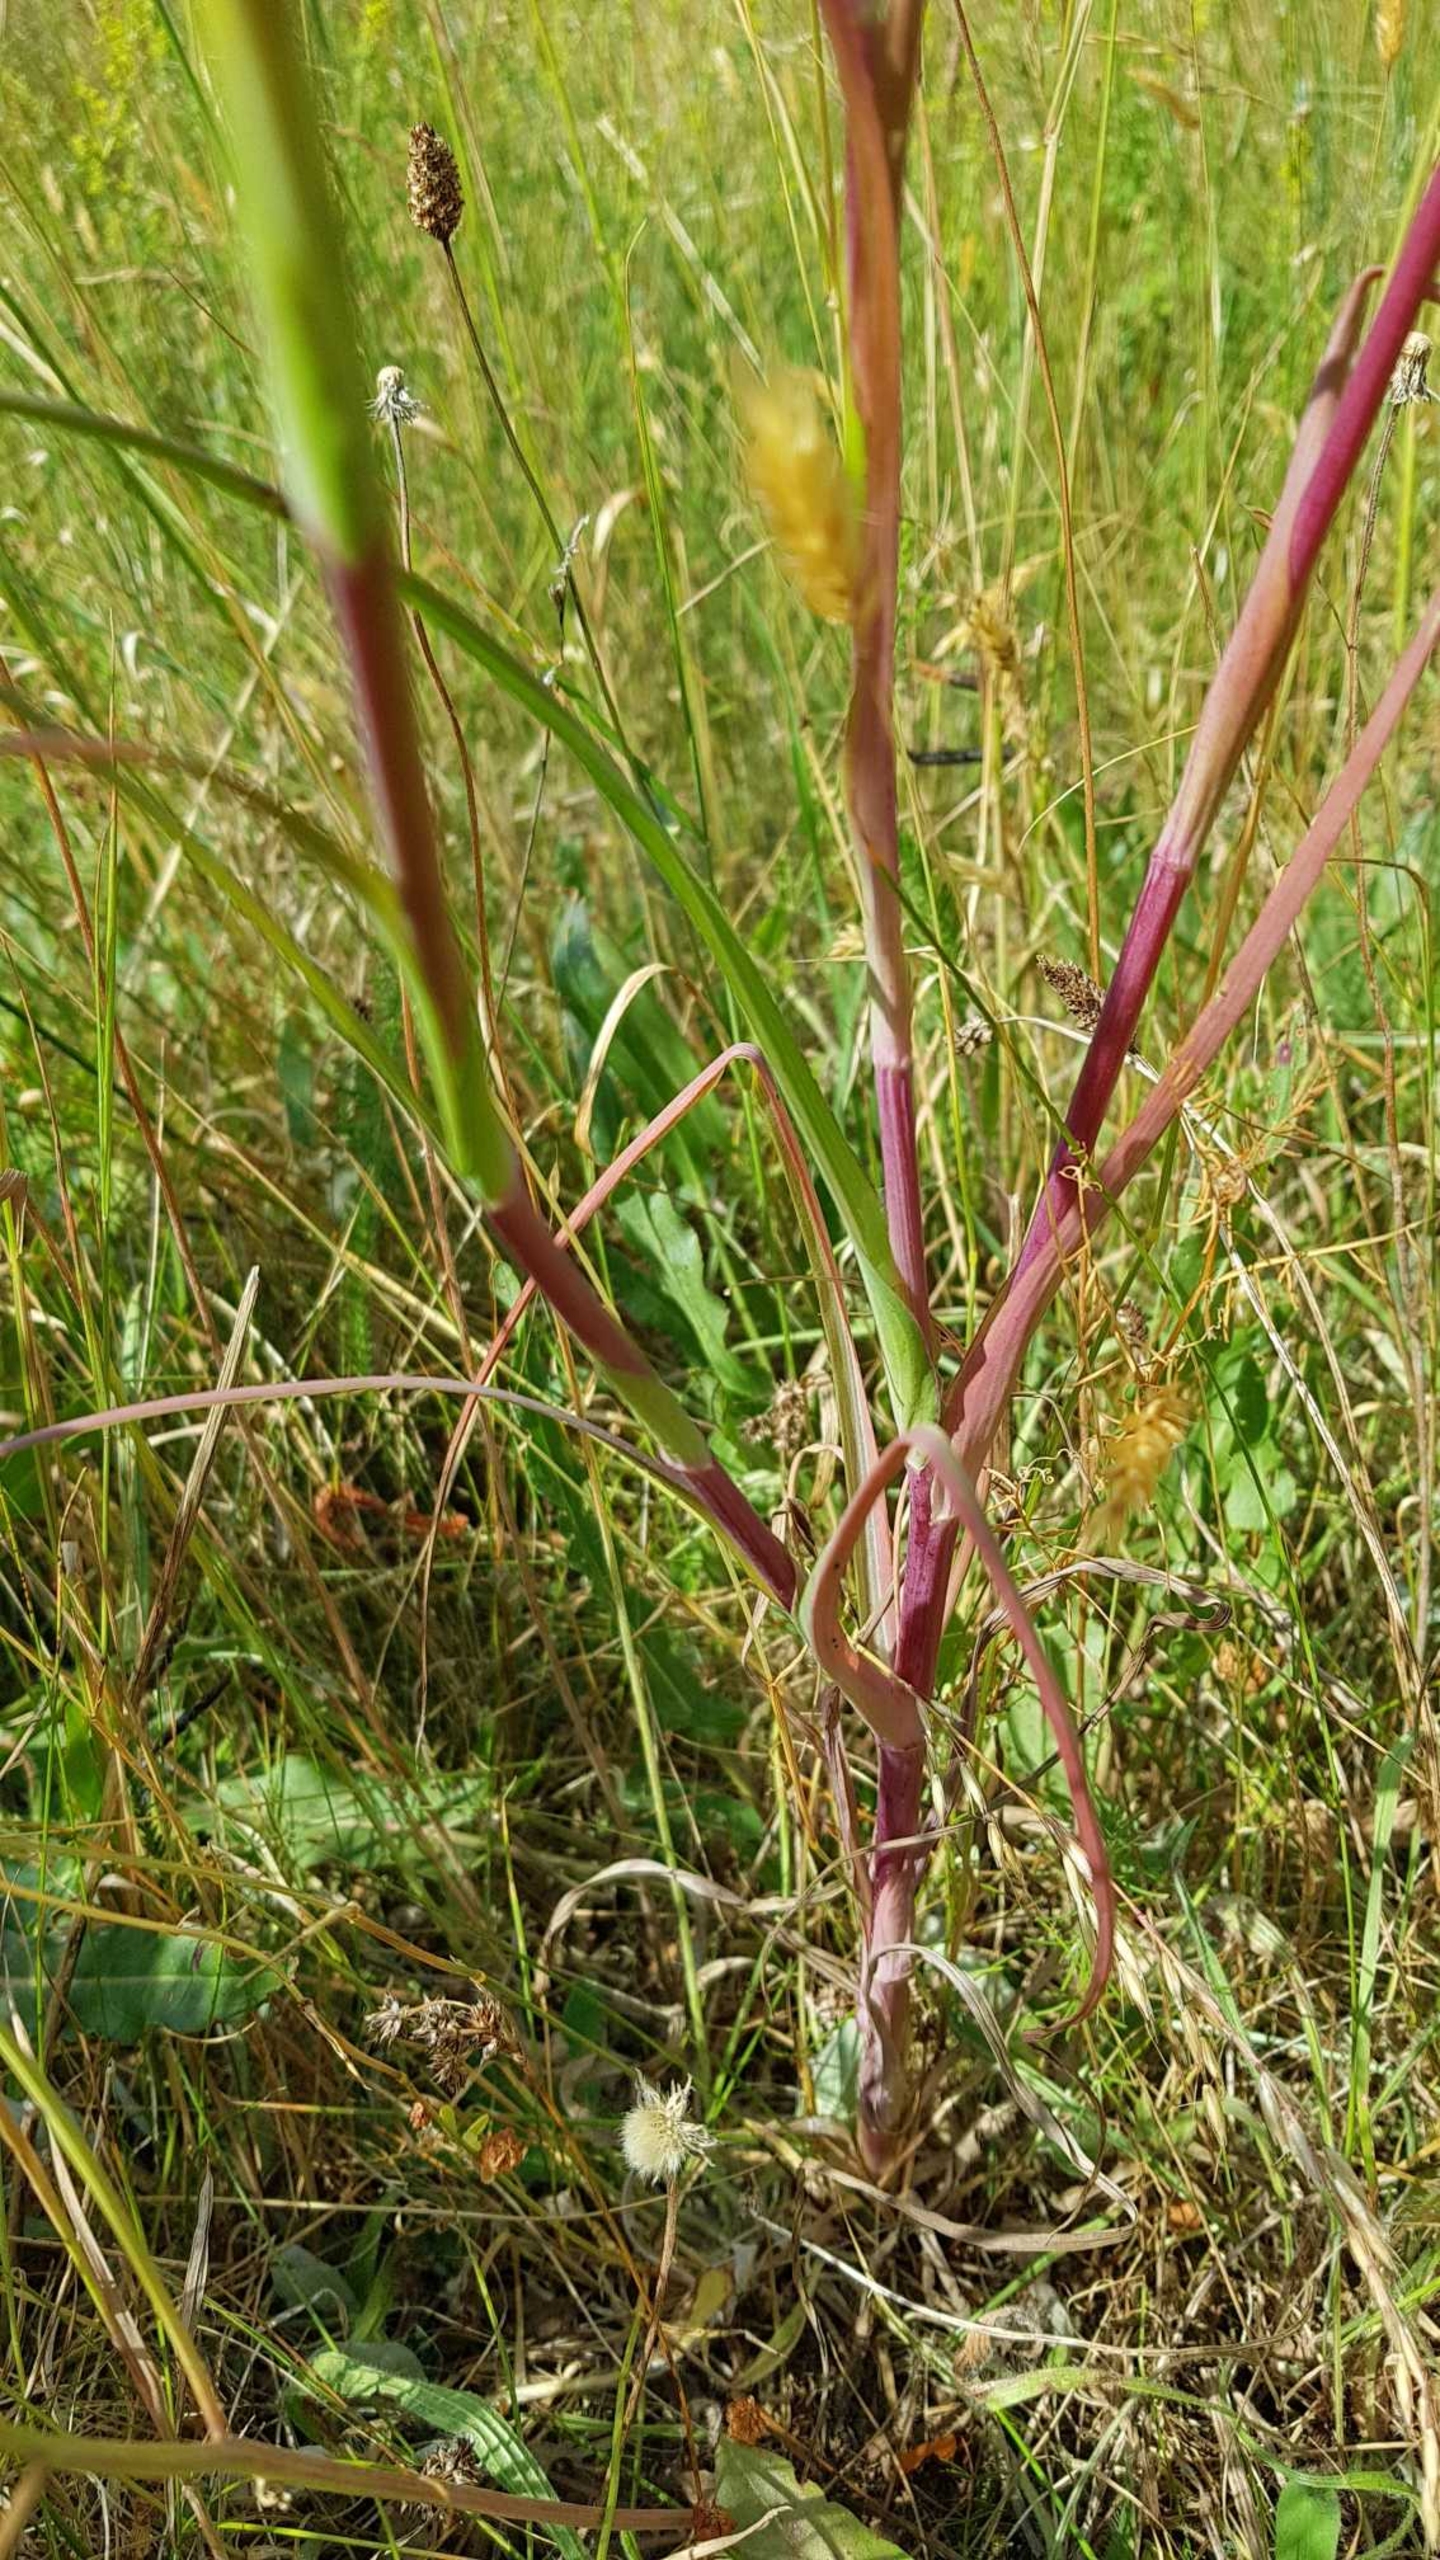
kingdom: Plantae
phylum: Tracheophyta
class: Magnoliopsida
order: Asterales
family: Asteraceae
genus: Tragopogon
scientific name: Tragopogon pratensis
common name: Gedeskæg
